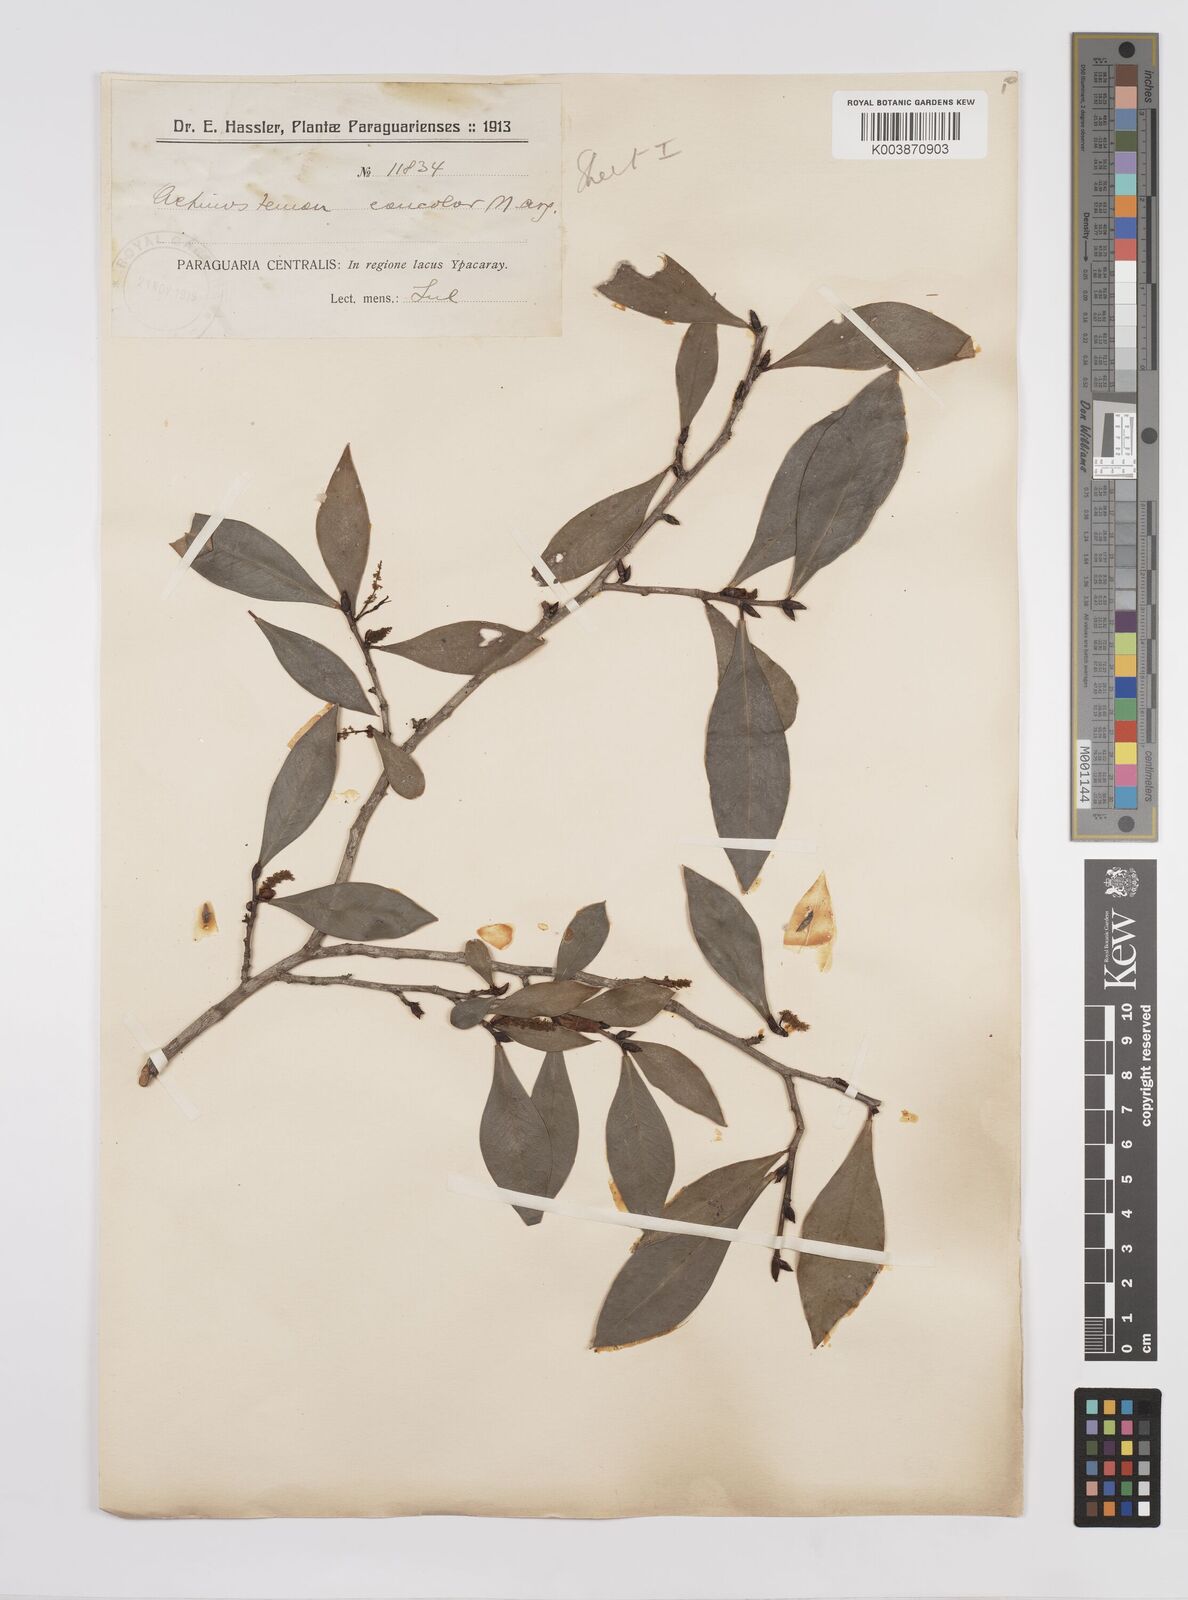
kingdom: Plantae
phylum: Tracheophyta
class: Magnoliopsida
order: Malpighiales
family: Euphorbiaceae
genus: Actinostemon
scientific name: Actinostemon concolor
